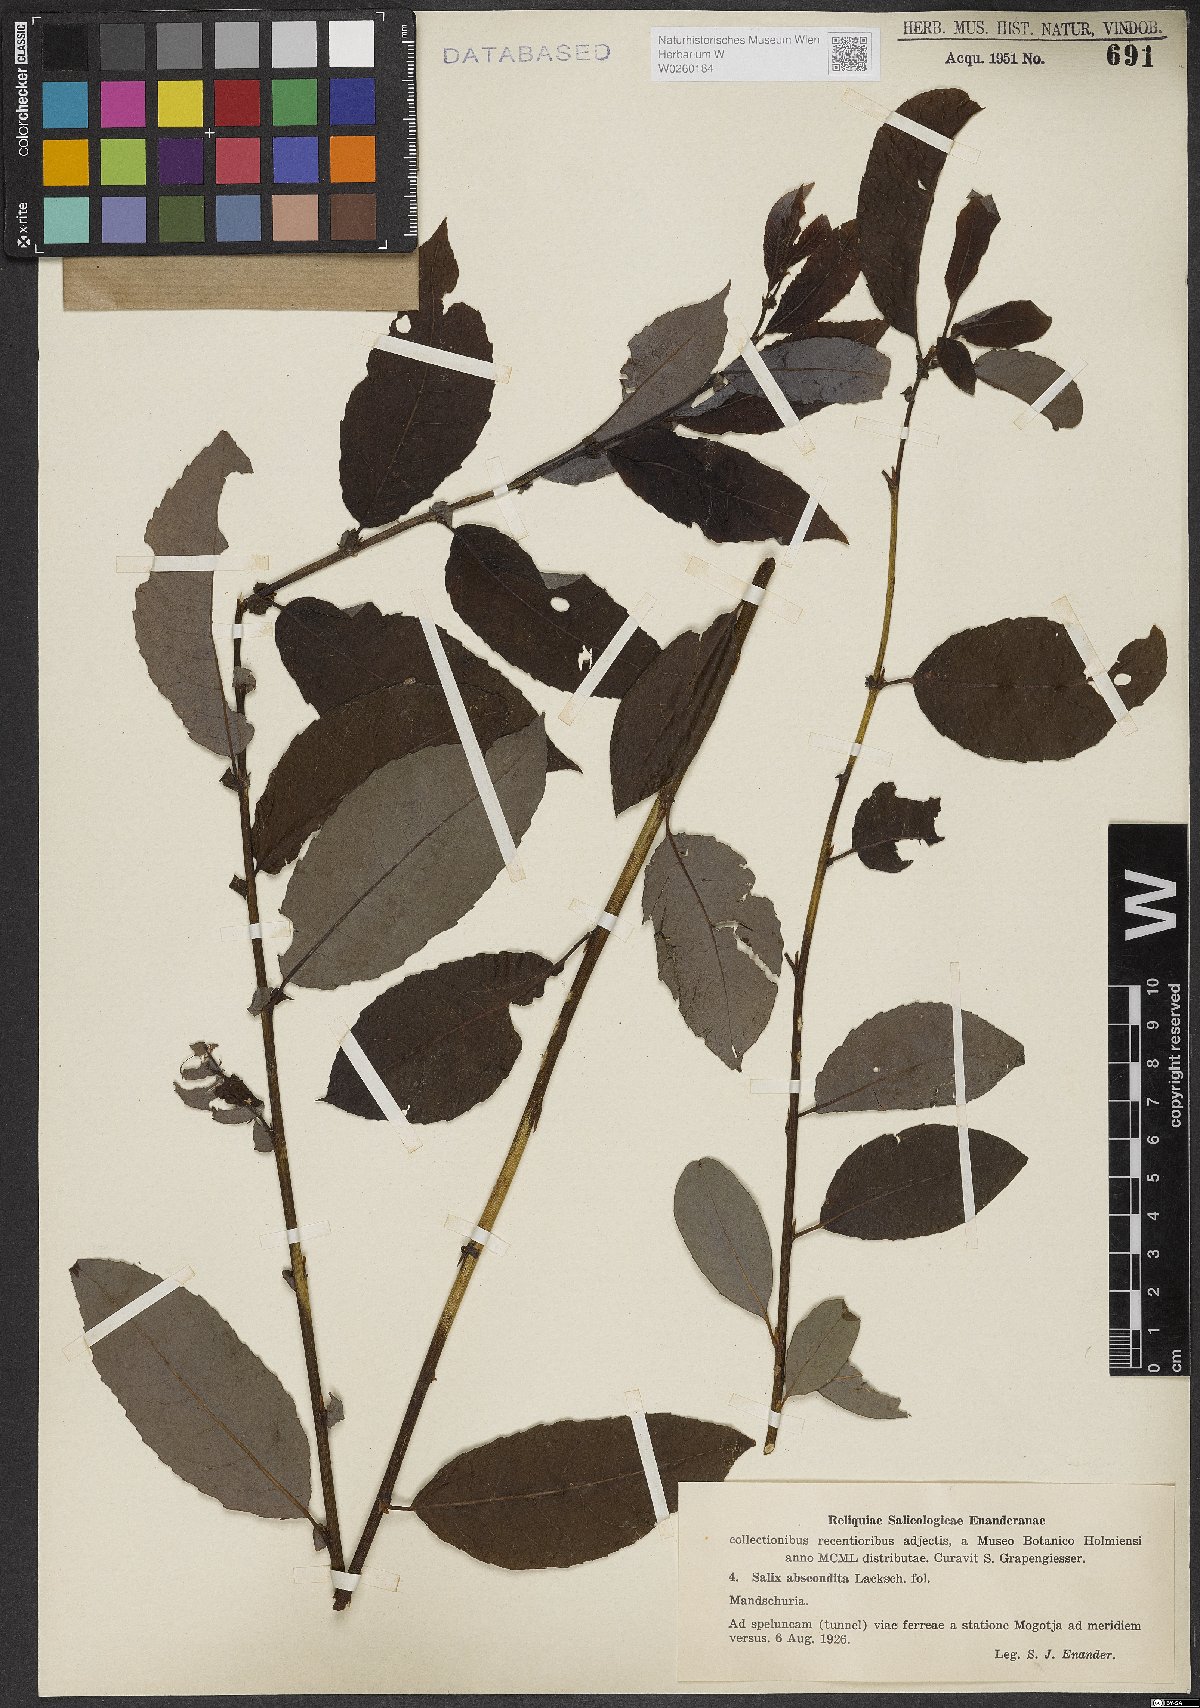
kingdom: Plantae
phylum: Tracheophyta
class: Magnoliopsida
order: Malpighiales
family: Salicaceae
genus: Salix
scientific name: Salix abscondita
